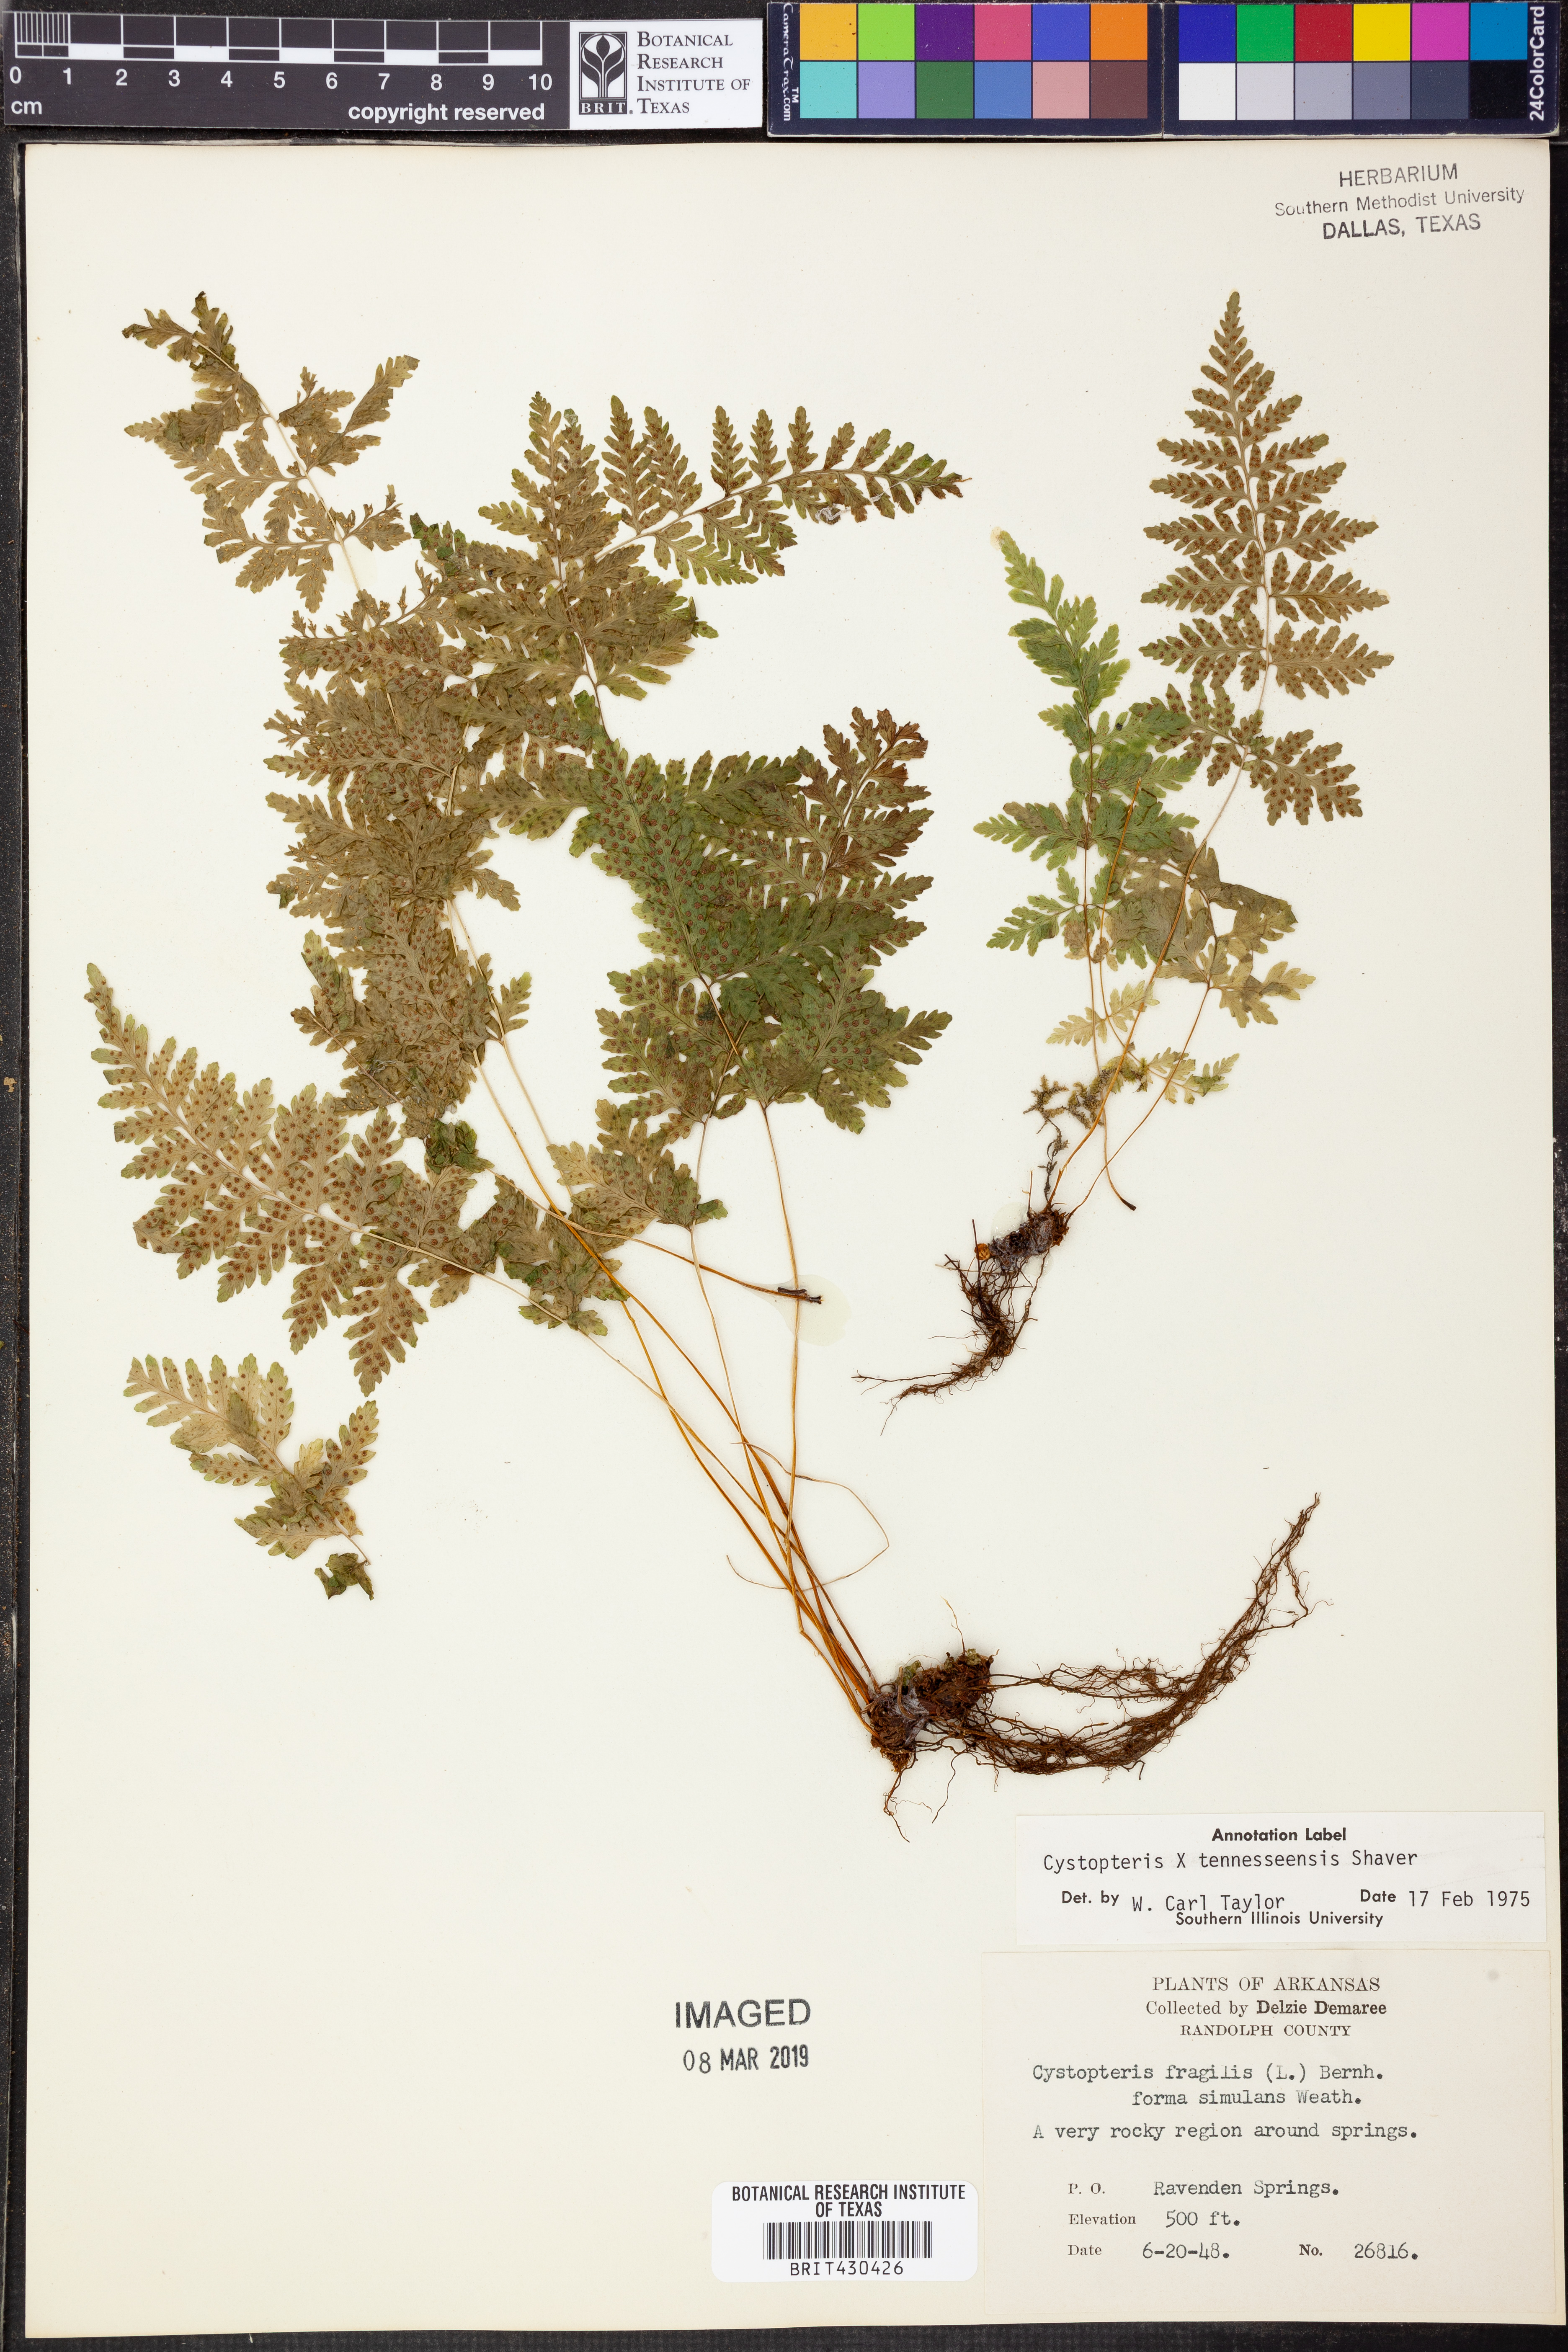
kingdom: Plantae
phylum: Tracheophyta
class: Polypodiopsida
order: Polypodiales
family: Cystopteridaceae
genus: Cystopteris
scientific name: Cystopteris tennesseensis
